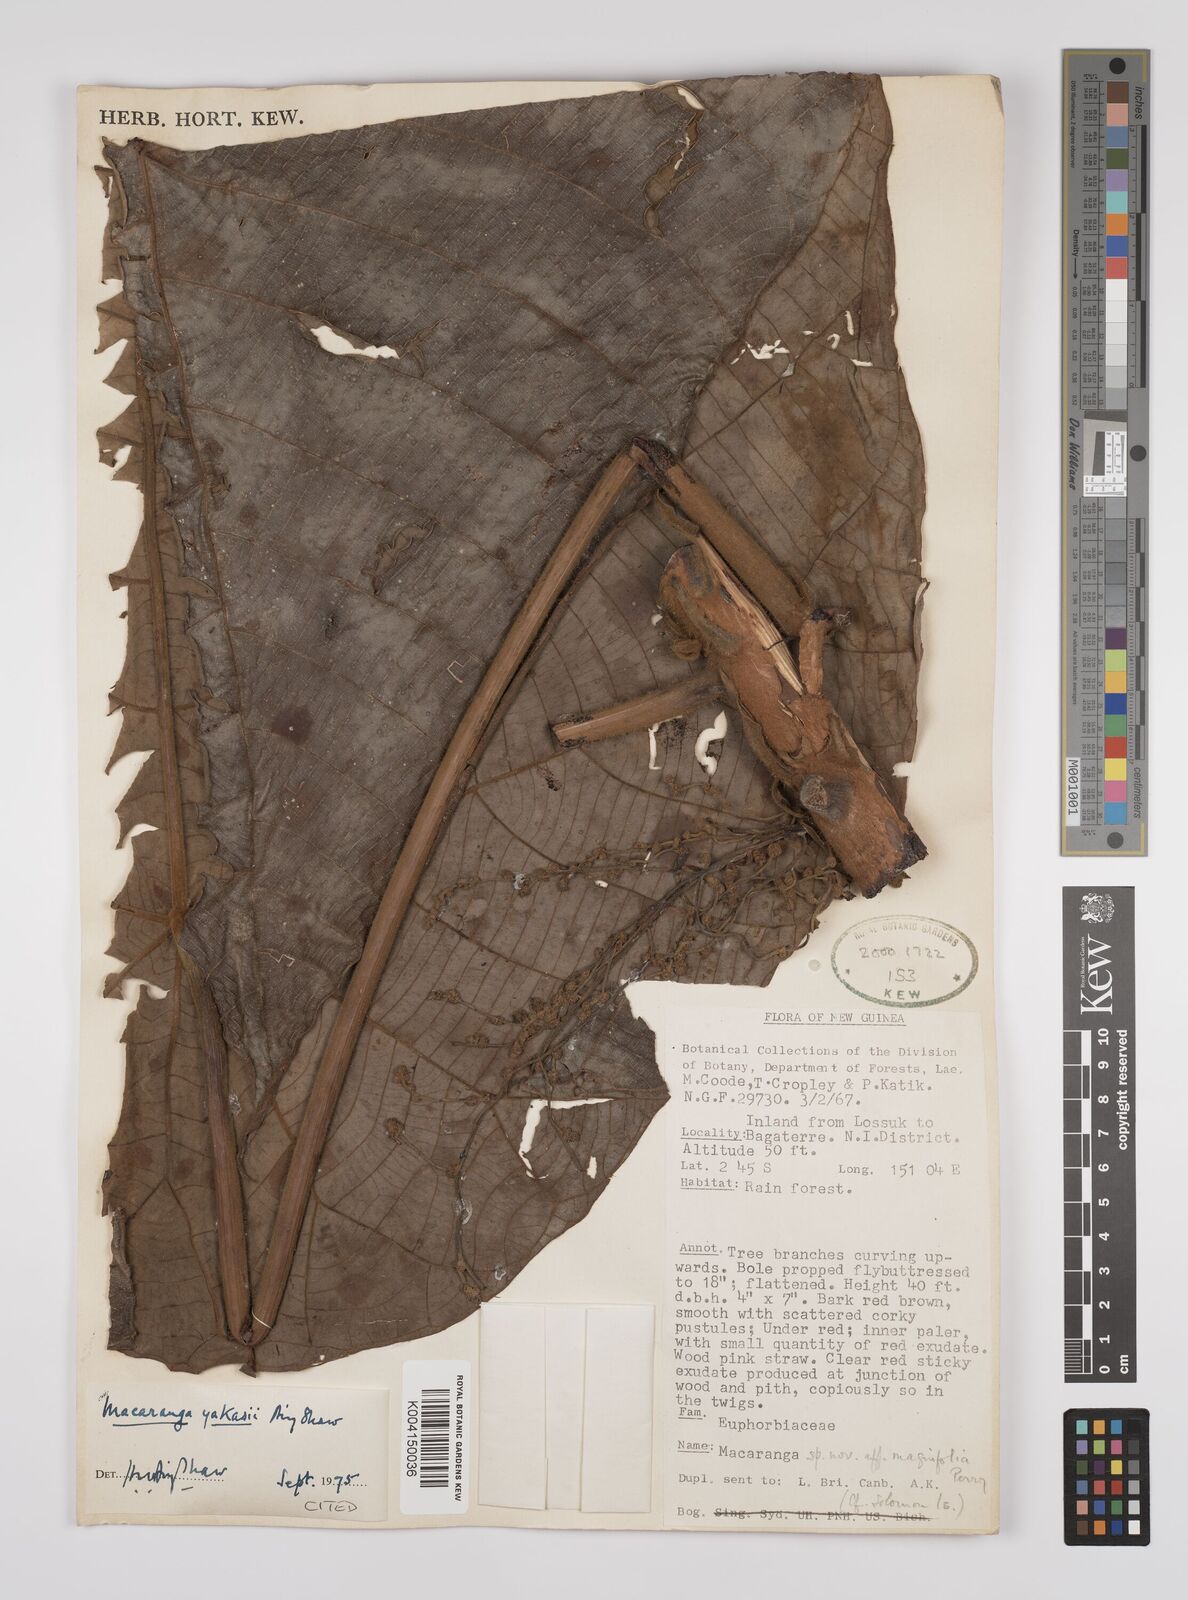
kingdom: Plantae
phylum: Tracheophyta
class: Magnoliopsida
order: Malpighiales
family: Euphorbiaceae
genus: Macaranga
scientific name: Macaranga yakasii
